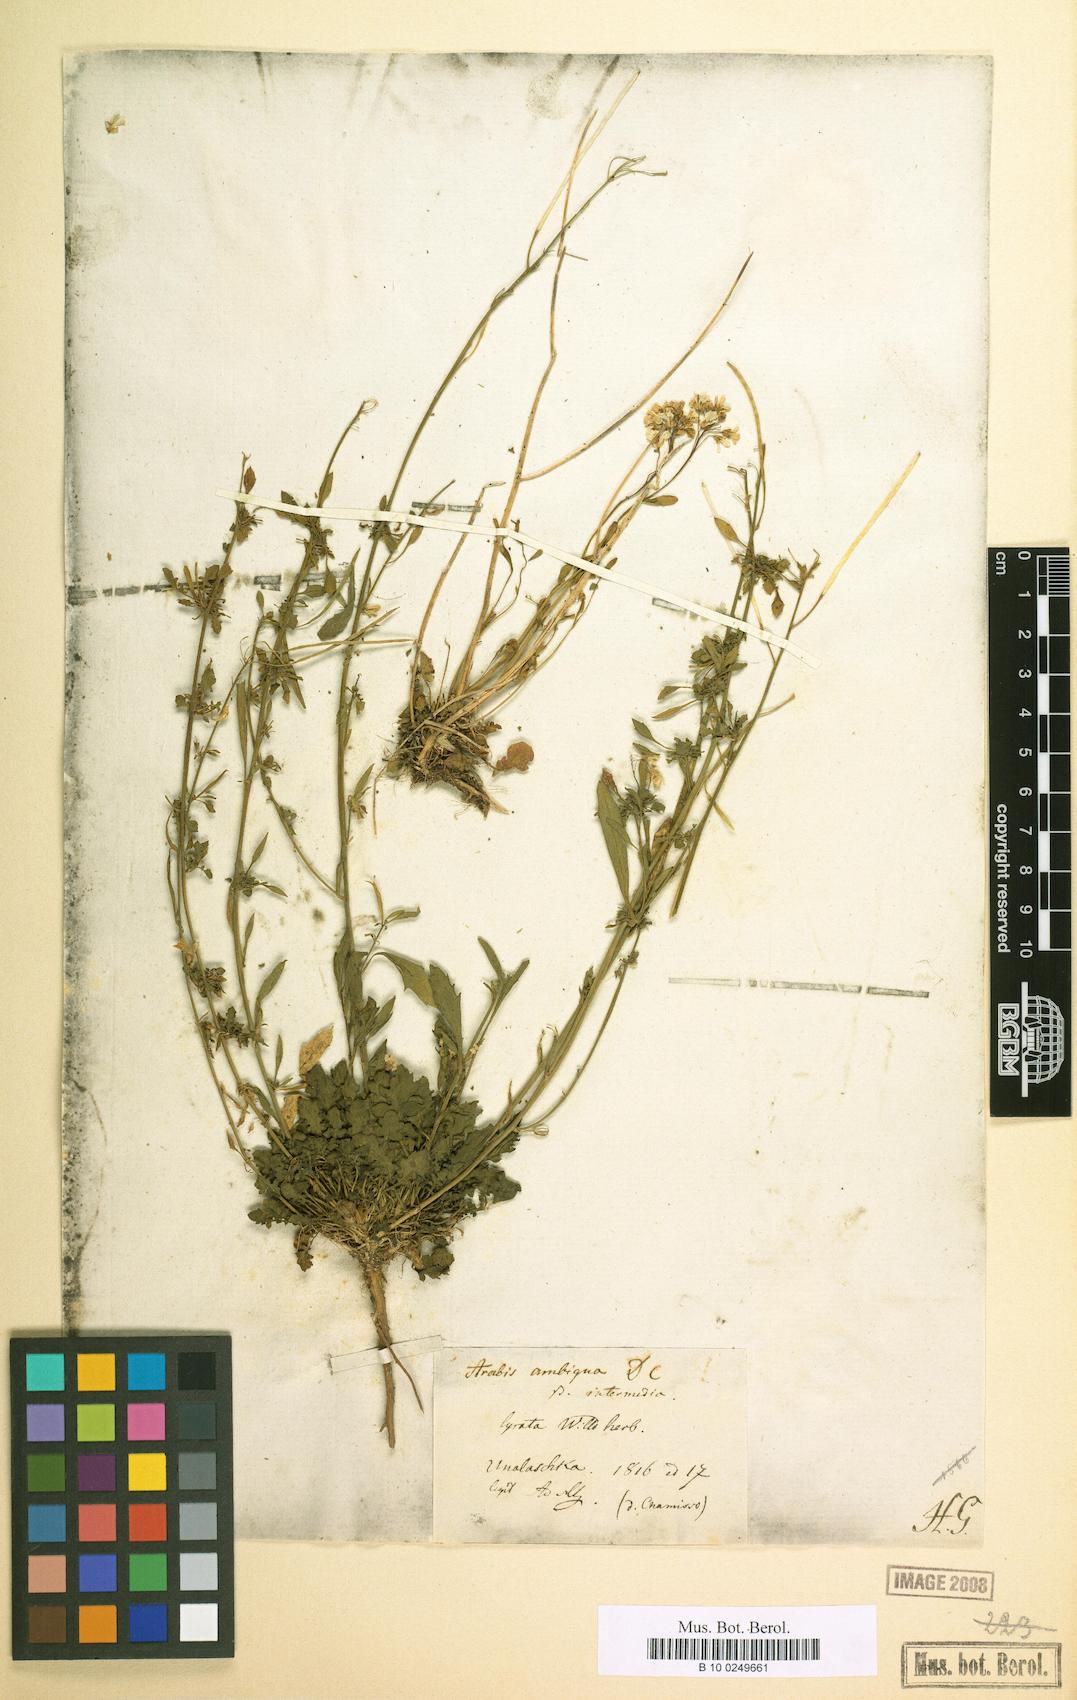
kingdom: Plantae
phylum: Tracheophyta
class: Magnoliopsida
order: Brassicales
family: Brassicaceae
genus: Arabidopsis
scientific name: Arabidopsis lyrata
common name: Lyrate rockcress
